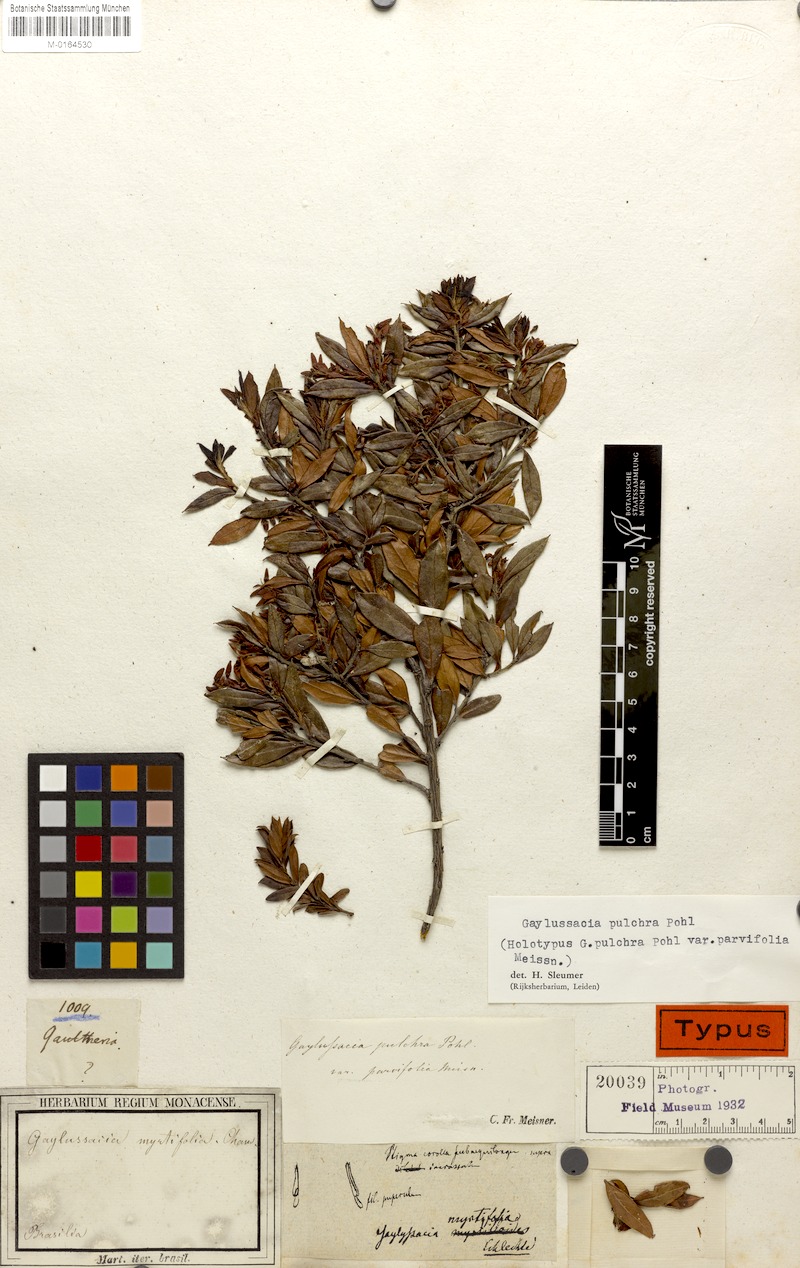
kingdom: Plantae
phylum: Tracheophyta
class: Magnoliopsida
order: Ericales
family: Ericaceae
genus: Gaylussacia
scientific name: Gaylussacia pulchra
